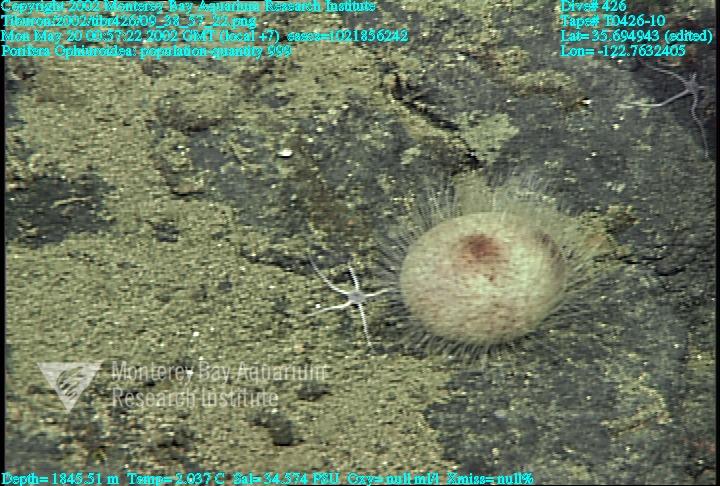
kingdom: Animalia
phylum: Porifera
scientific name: Porifera
